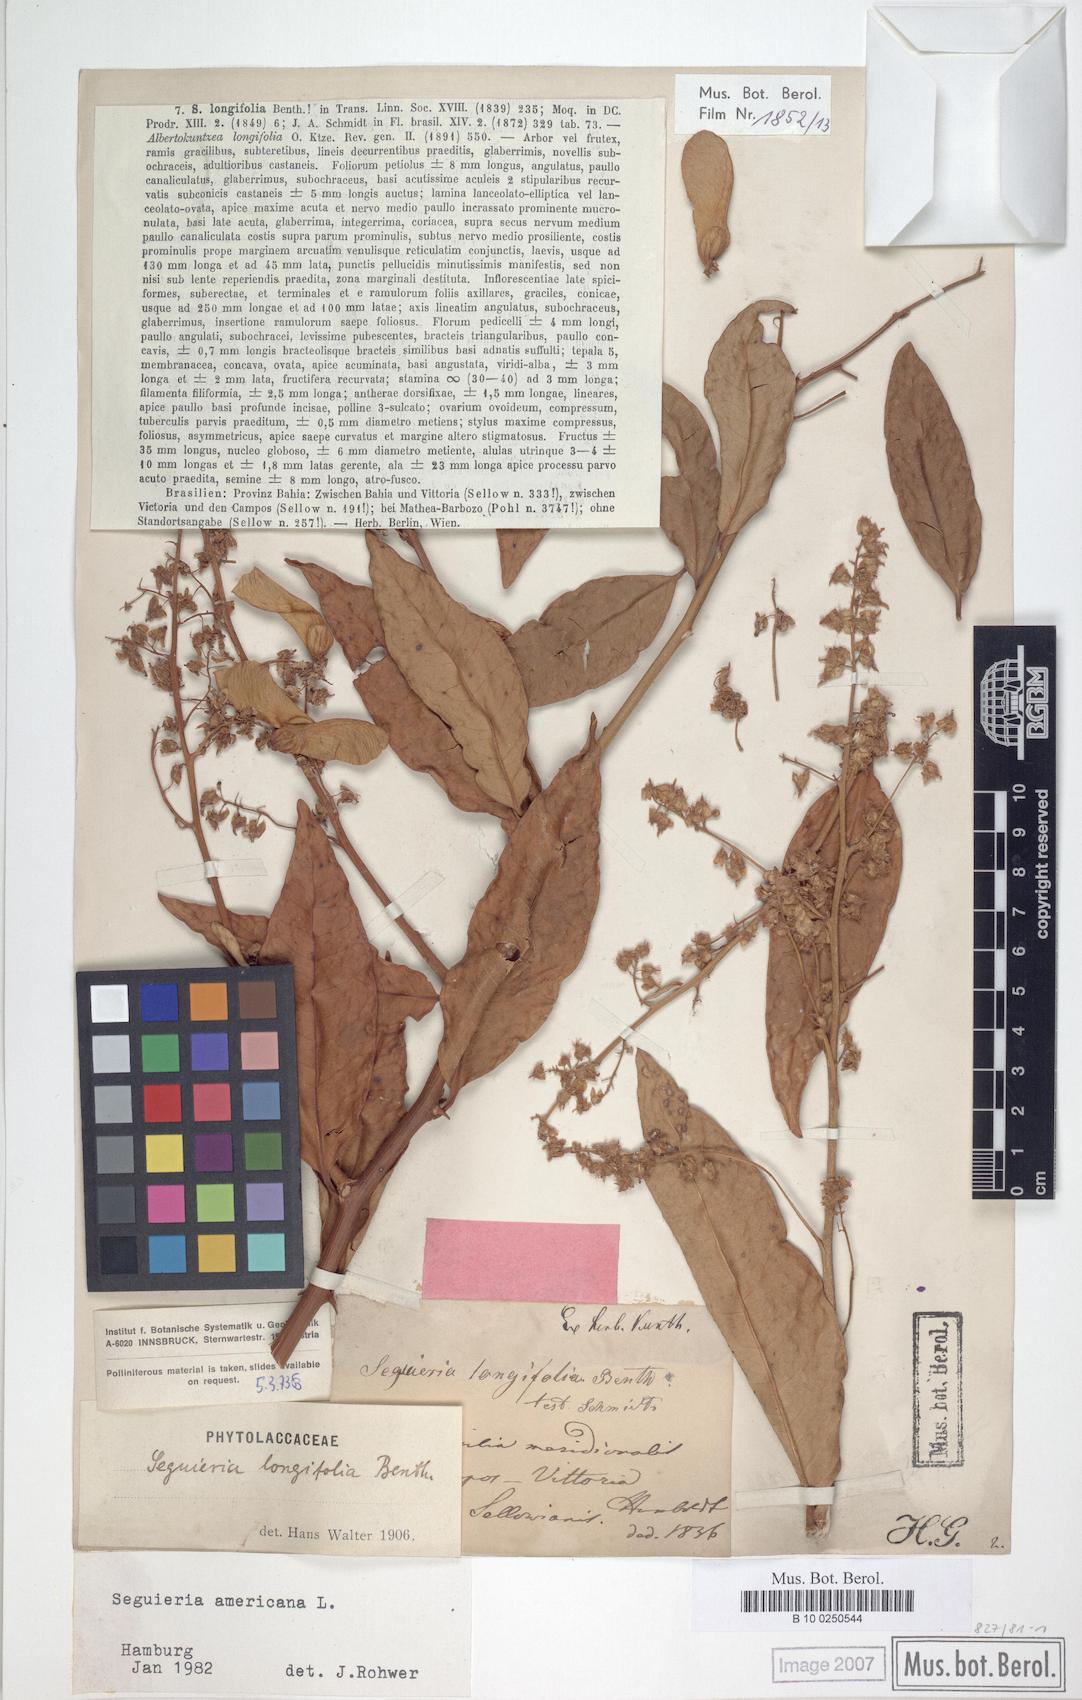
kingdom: Plantae
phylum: Tracheophyta
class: Magnoliopsida
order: Caryophyllales
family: Phytolaccaceae
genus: Seguieria
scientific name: Seguieria americana
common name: American seguieria
